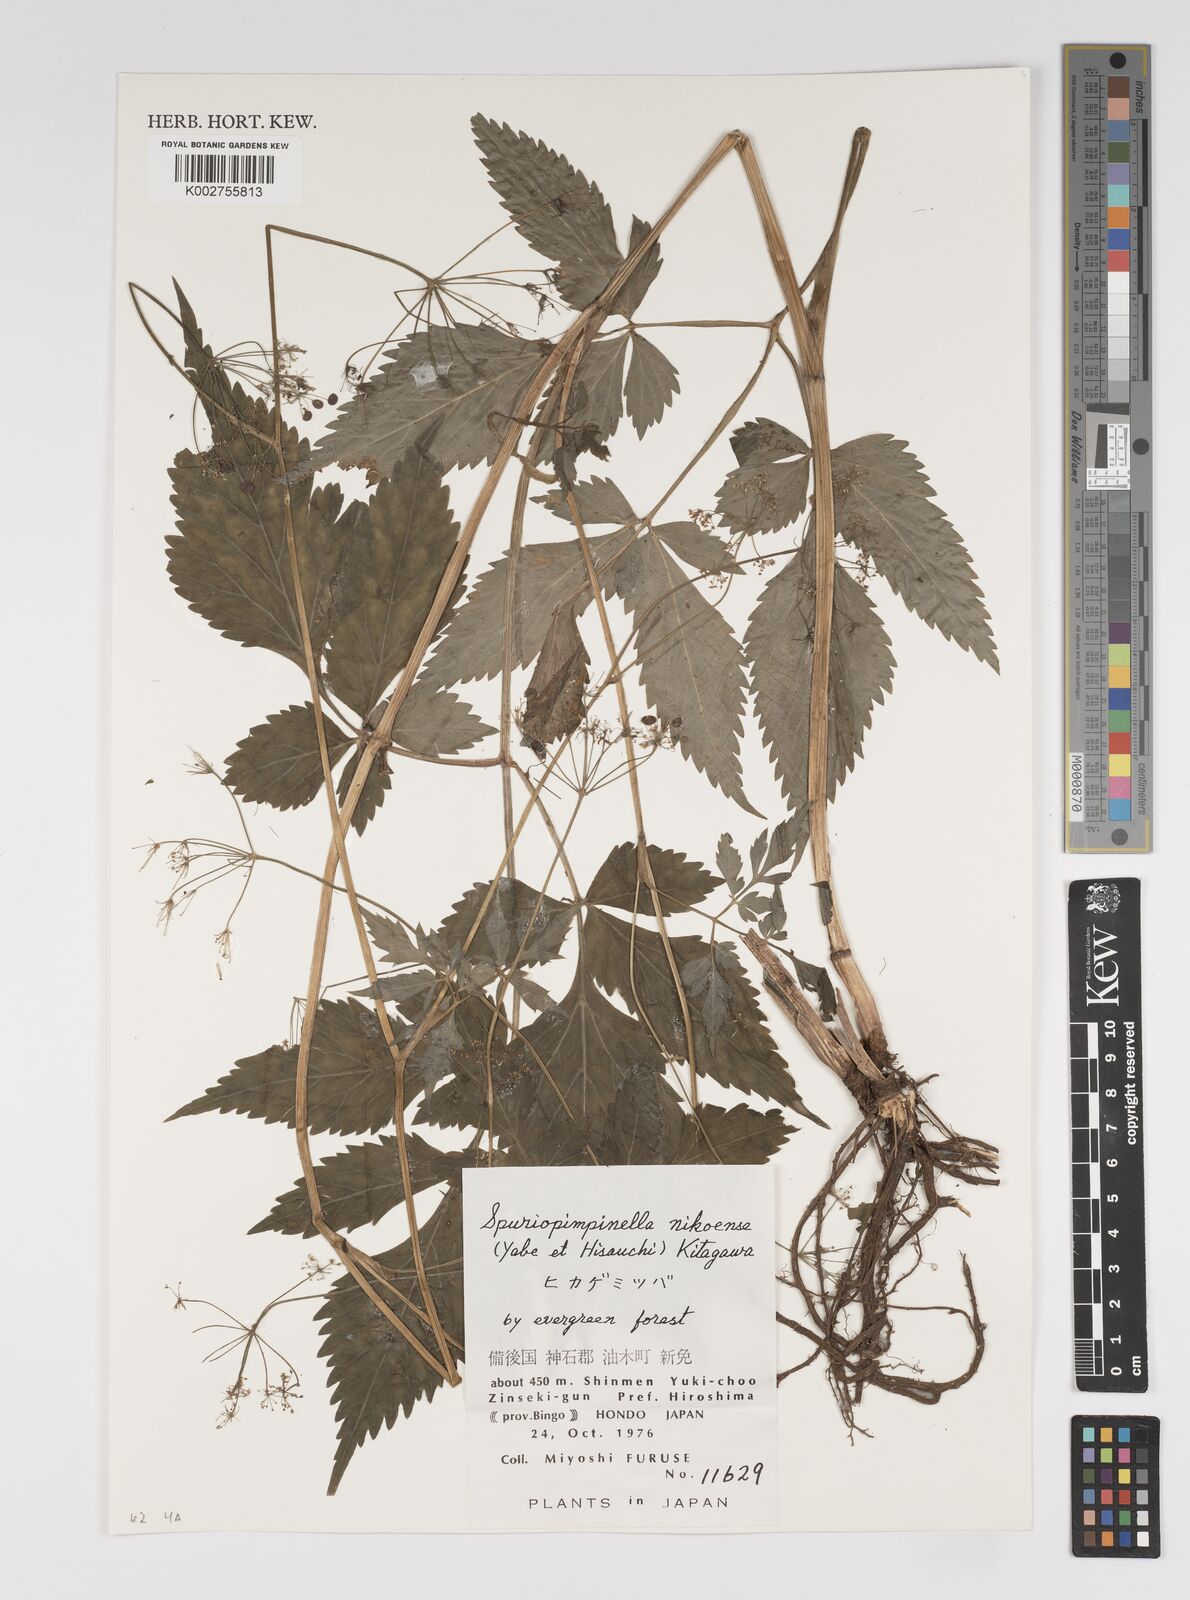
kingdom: Plantae
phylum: Tracheophyta
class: Magnoliopsida
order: Apiales
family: Apiaceae
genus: Spuriopimpinella
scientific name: Spuriopimpinella brachycarpa
